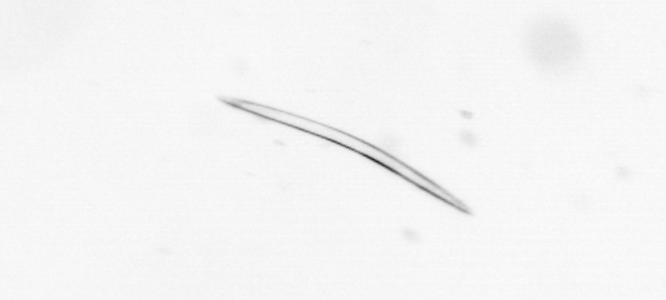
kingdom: Chromista
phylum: Ochrophyta
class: Bacillariophyceae
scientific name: Bacillariophyceae
